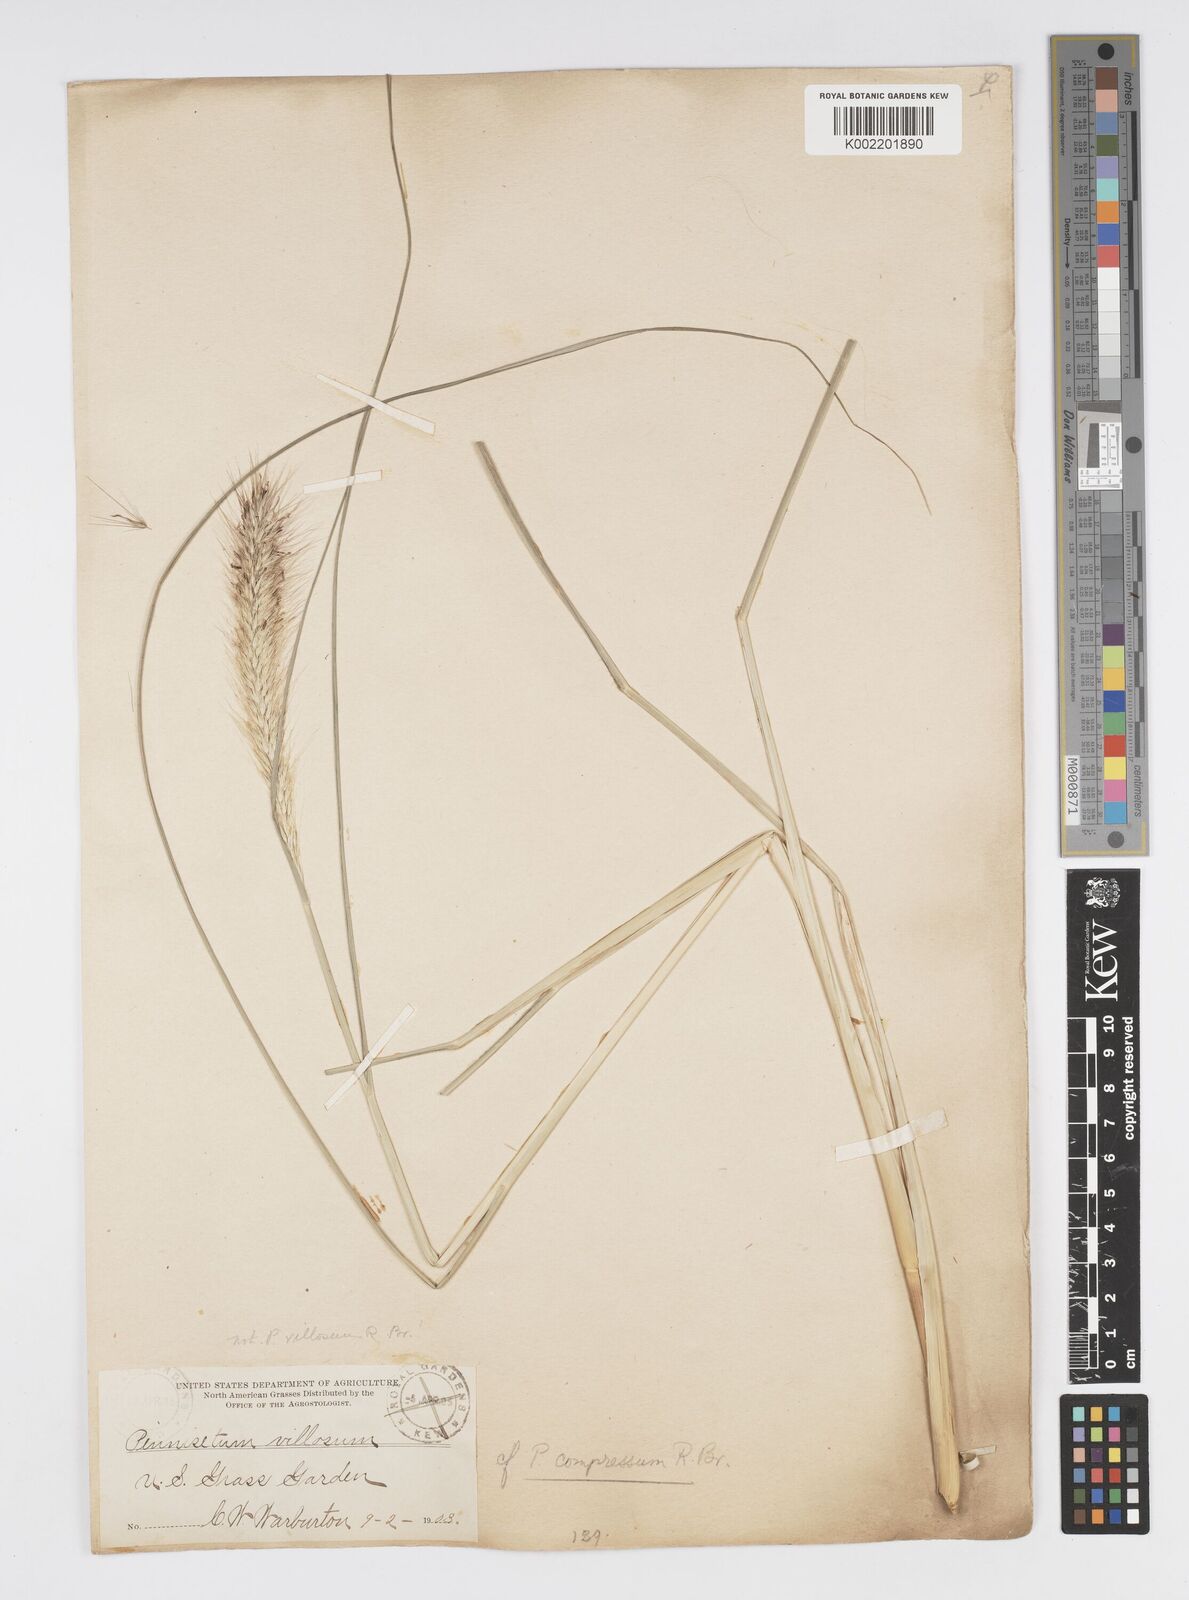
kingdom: Plantae
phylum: Tracheophyta
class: Liliopsida
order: Poales
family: Poaceae
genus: Cenchrus
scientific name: Cenchrus alopecuroides
